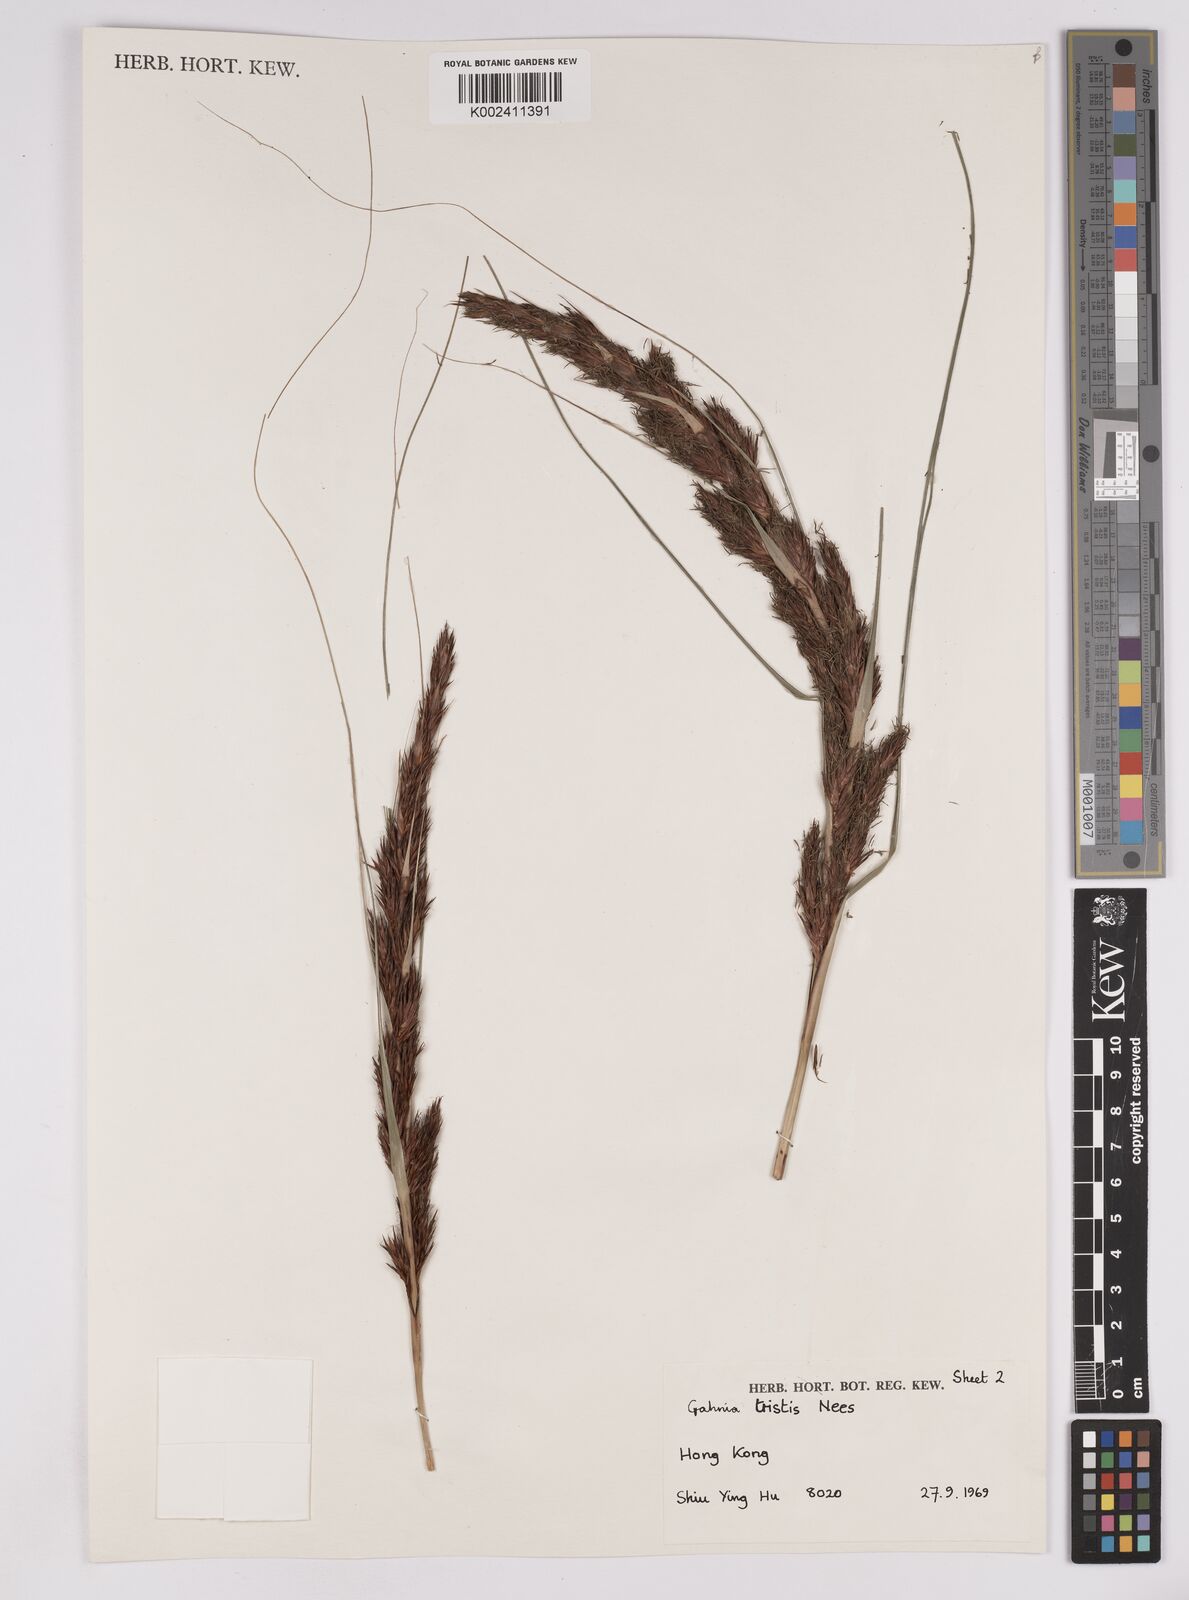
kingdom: Plantae
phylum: Tracheophyta
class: Liliopsida
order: Poales
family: Cyperaceae
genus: Gahnia
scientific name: Gahnia tristis
